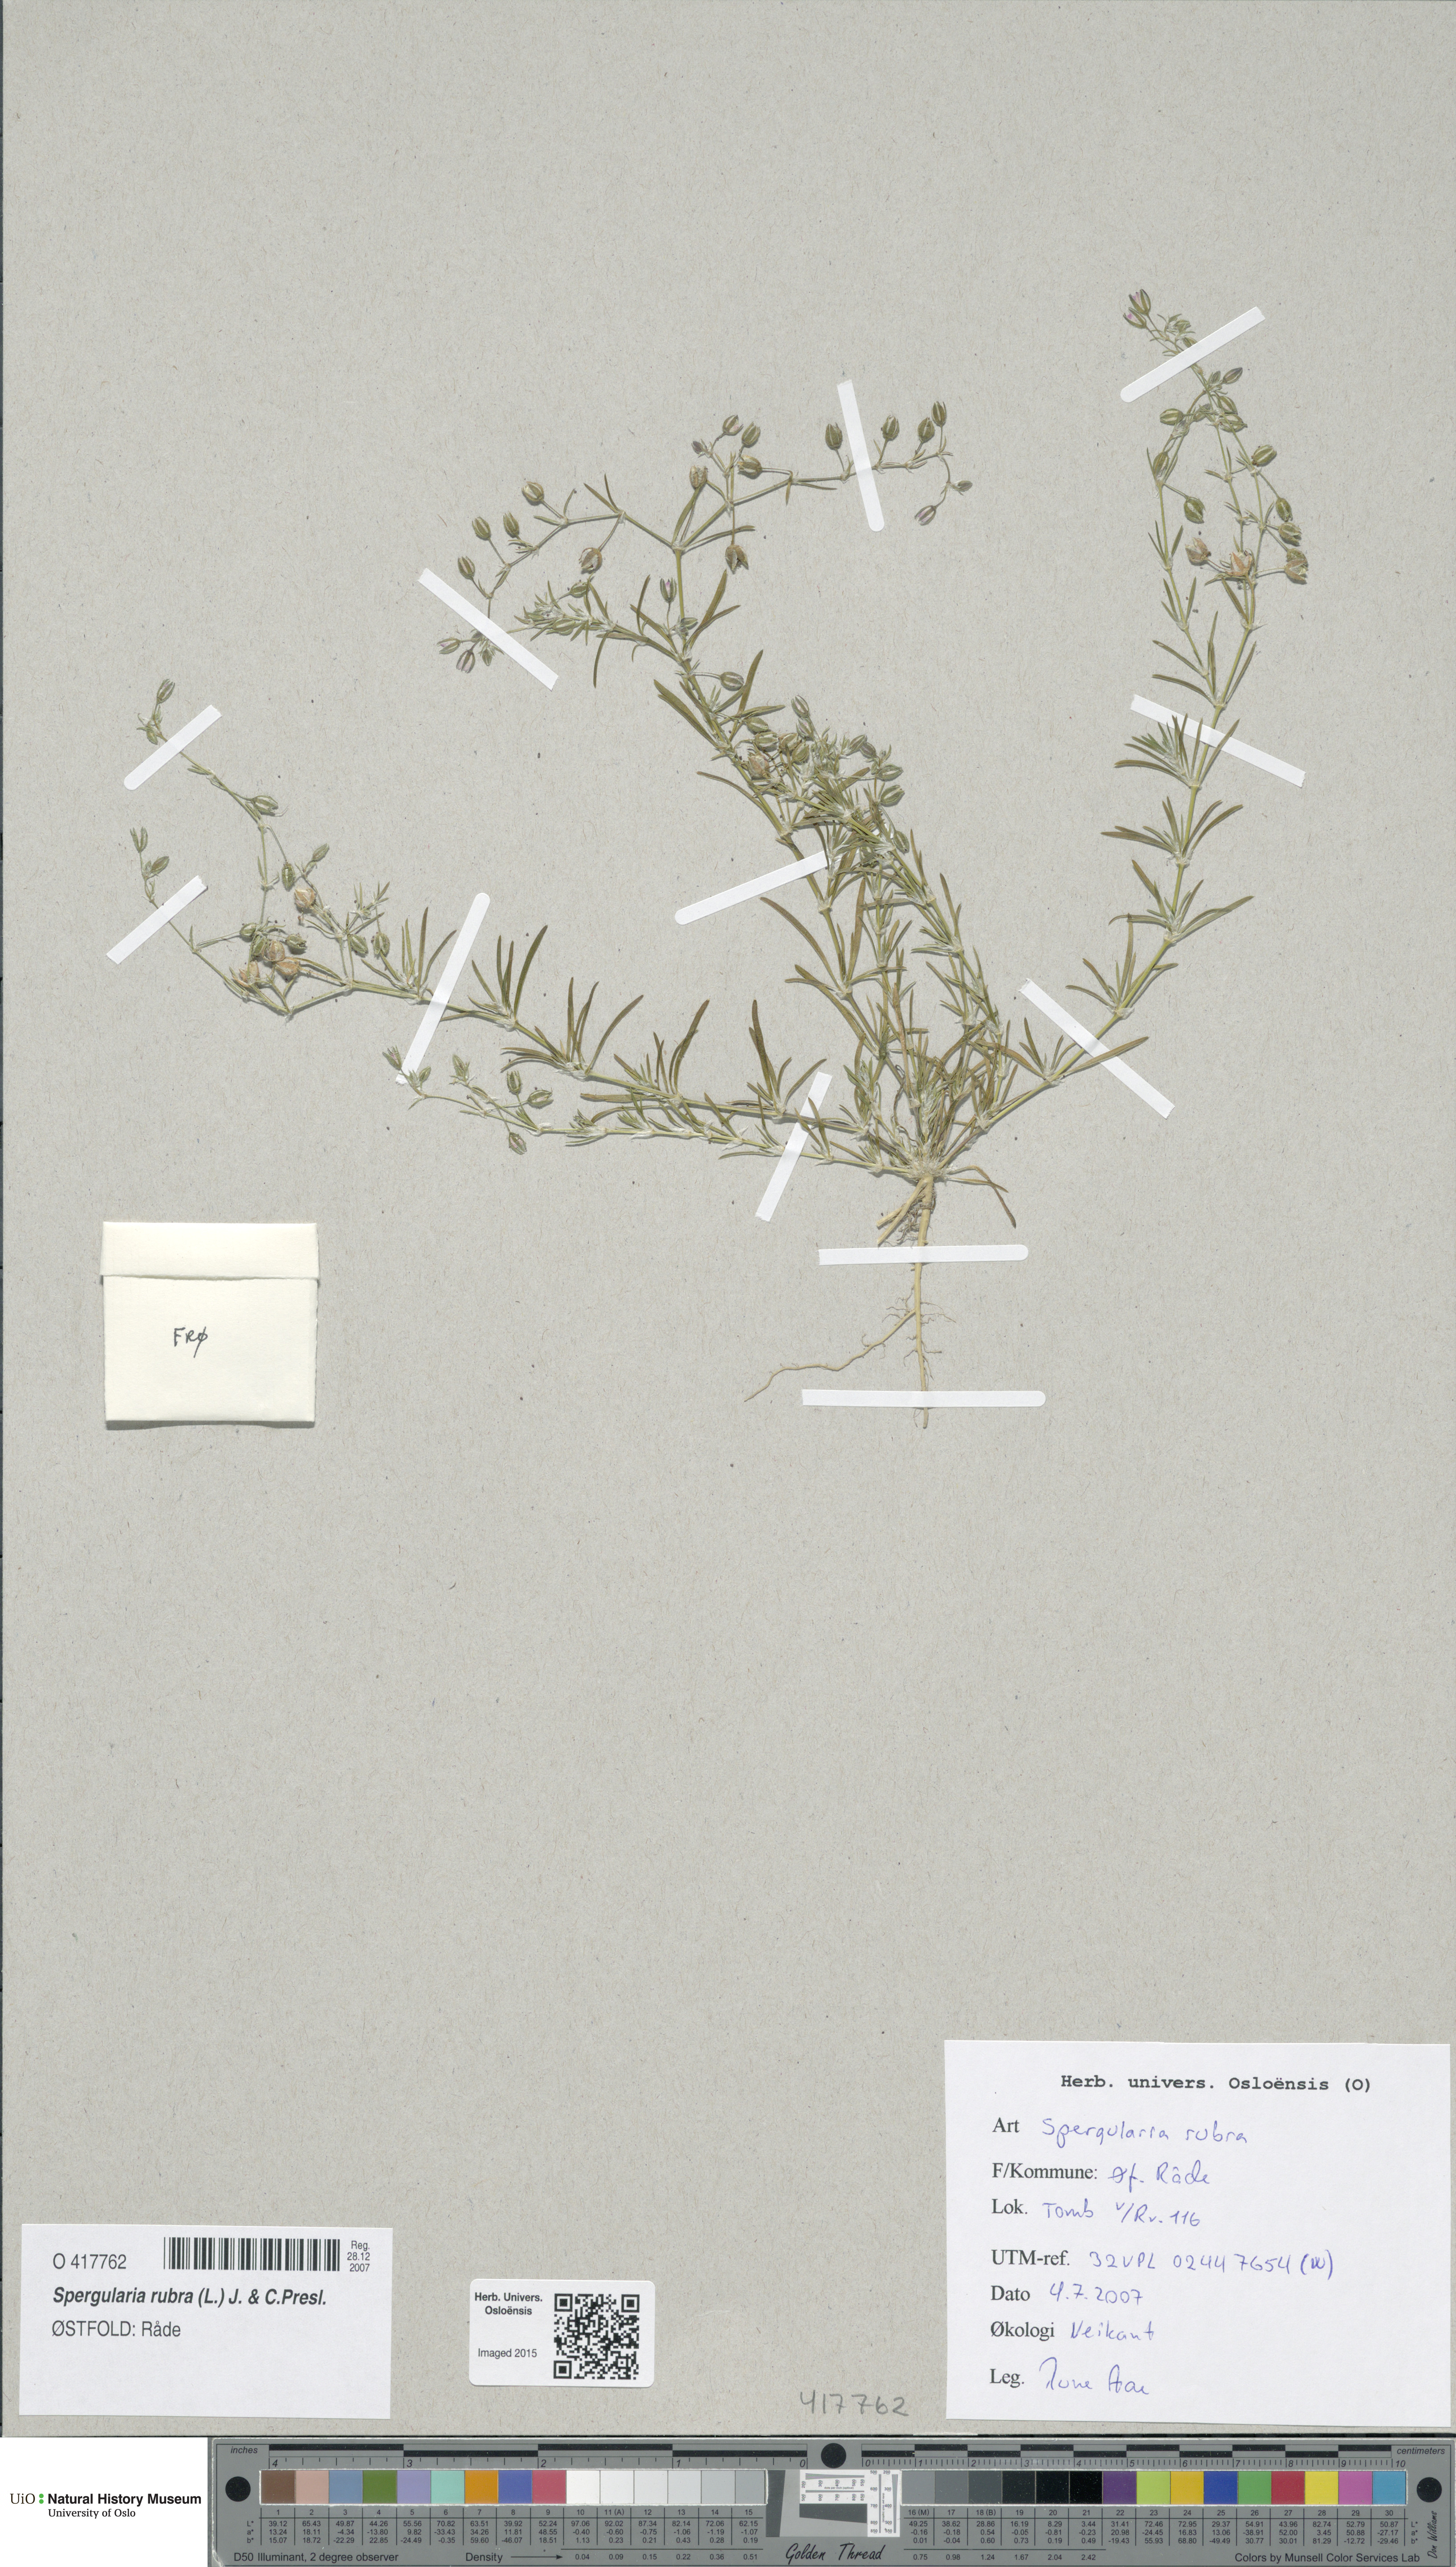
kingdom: Plantae
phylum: Tracheophyta
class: Magnoliopsida
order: Caryophyllales
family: Caryophyllaceae
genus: Spergularia
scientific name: Spergularia rubra
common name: Red sand-spurrey
